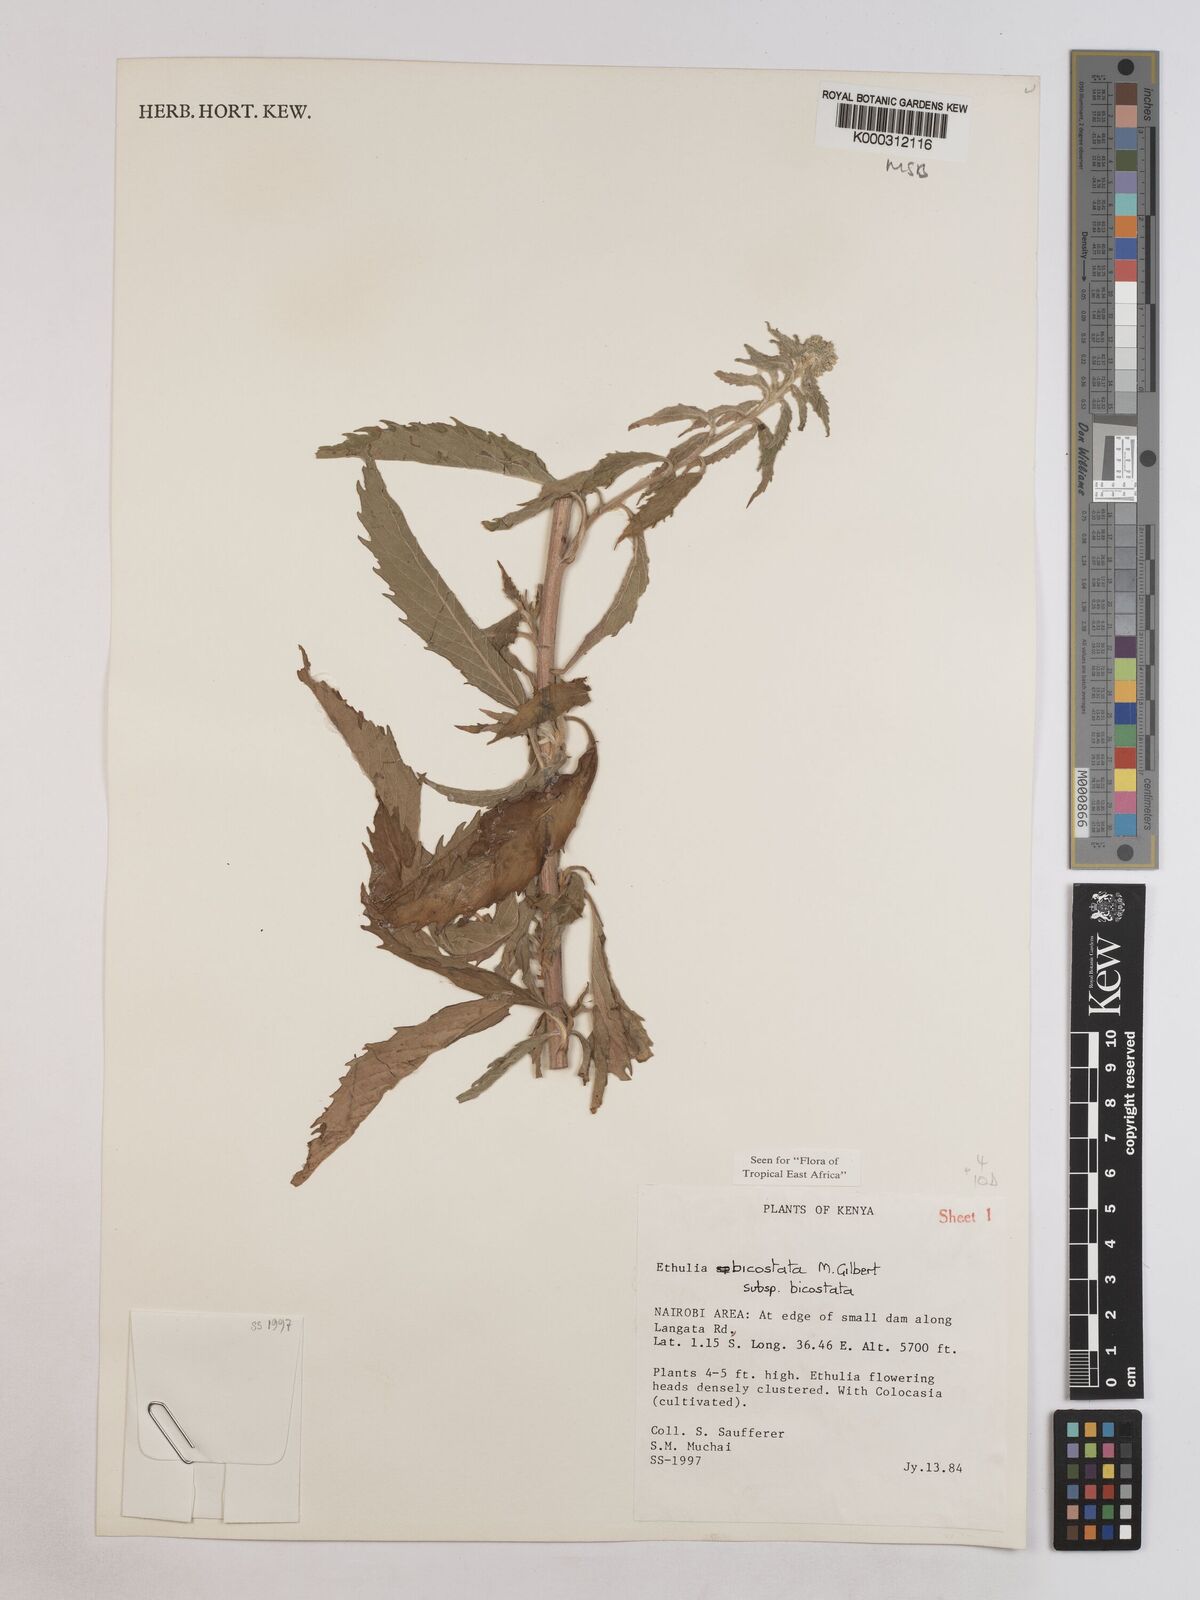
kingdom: Plantae
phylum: Tracheophyta
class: Magnoliopsida
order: Asterales
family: Asteraceae
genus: Ethulia
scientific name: Ethulia bicostata
